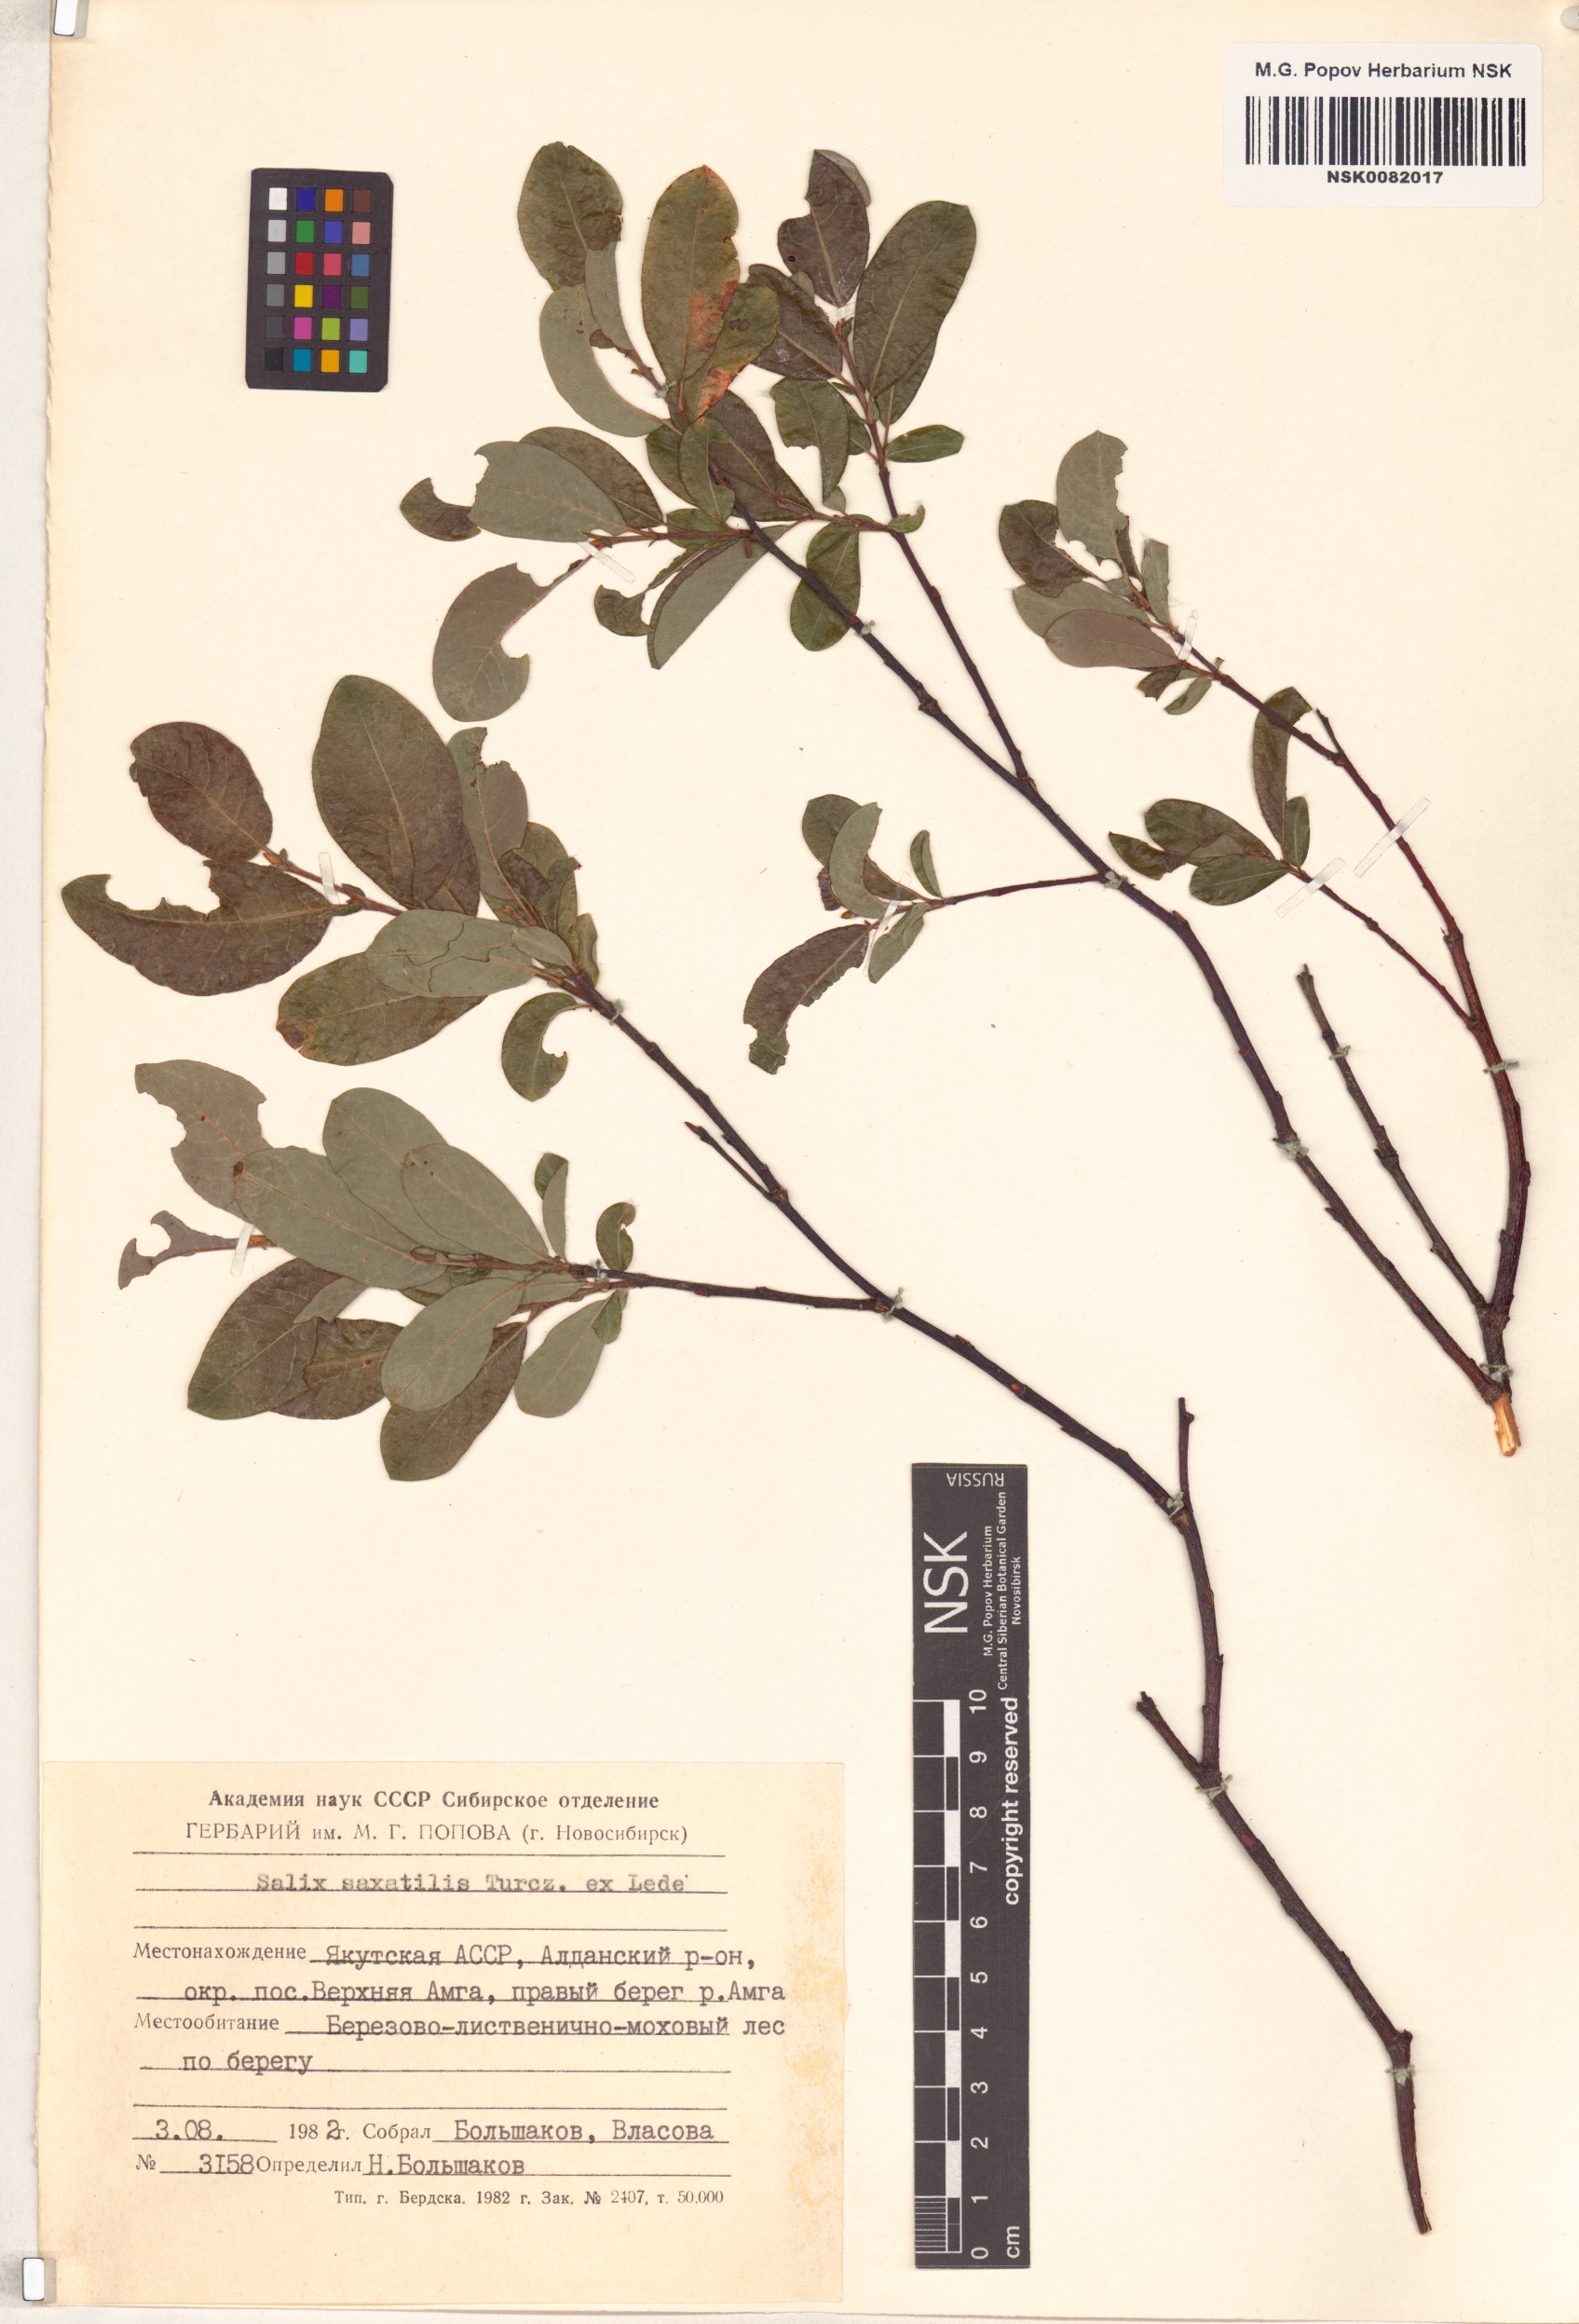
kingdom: Plantae
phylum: Tracheophyta
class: Magnoliopsida
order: Malpighiales
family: Salicaceae
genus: Salix
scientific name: Salix saxatilis
